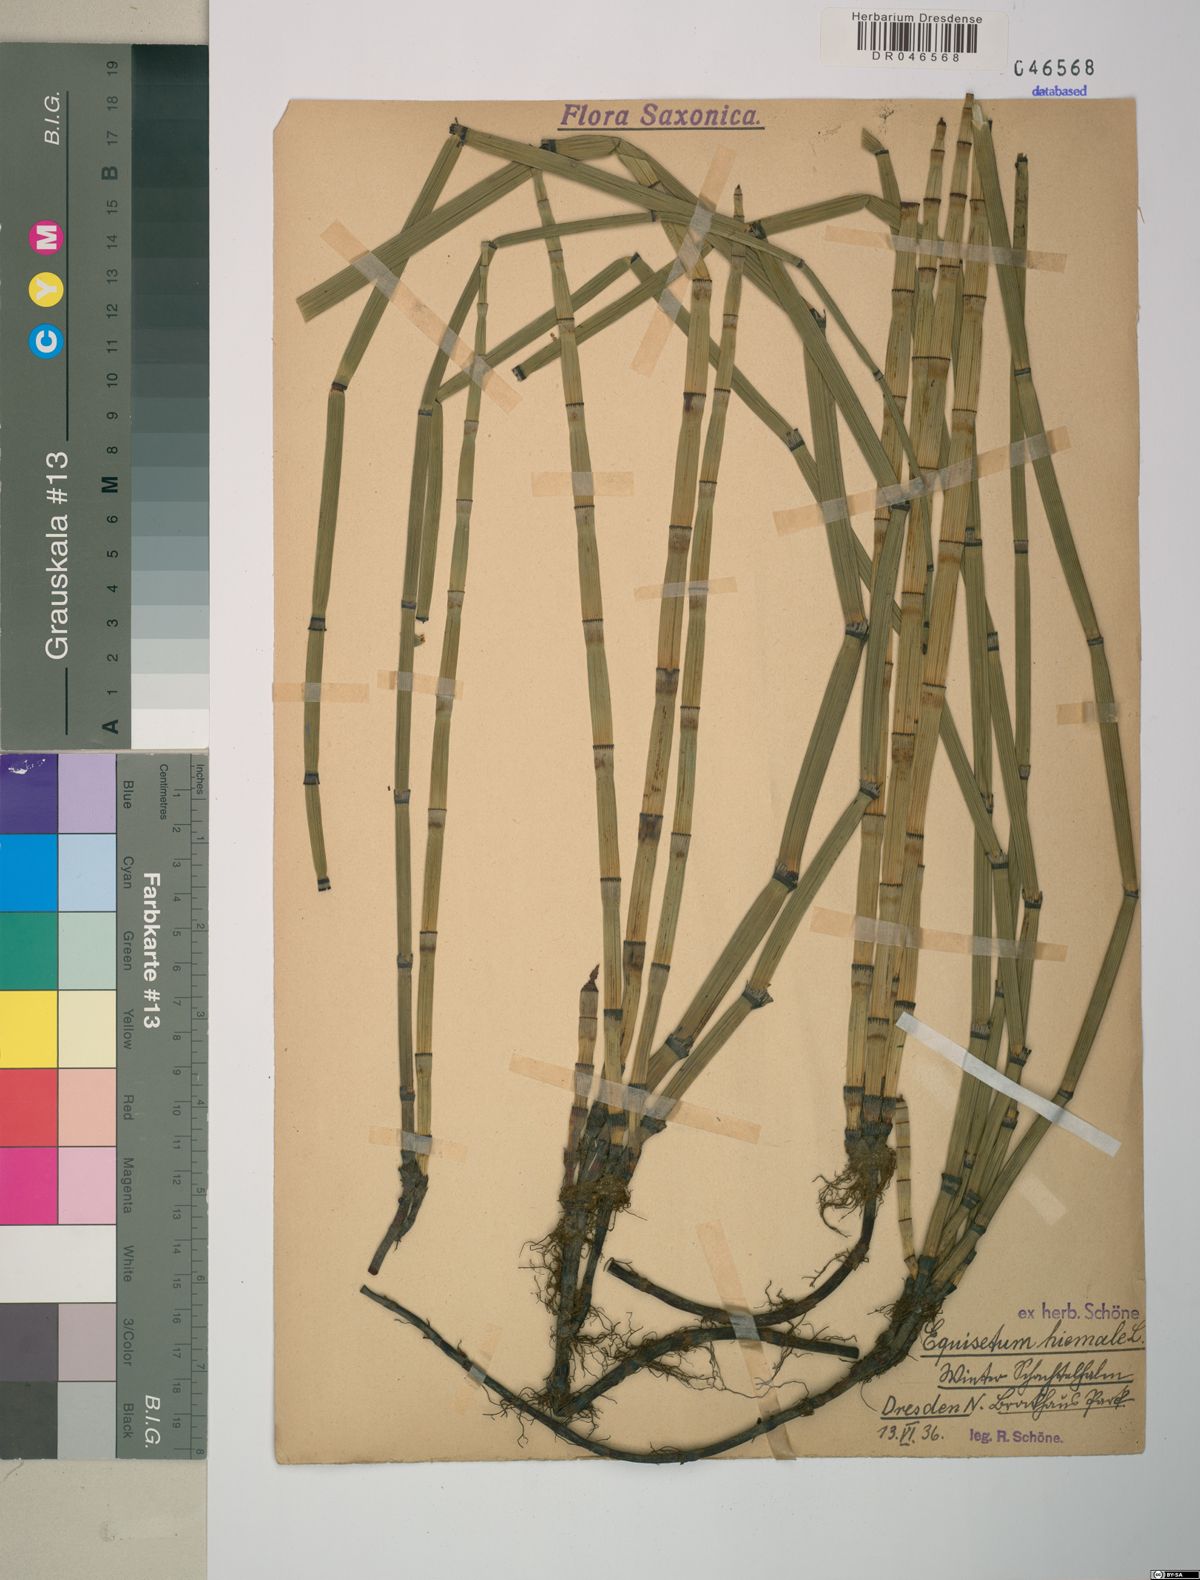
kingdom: Plantae
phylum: Tracheophyta
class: Polypodiopsida
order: Equisetales
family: Equisetaceae
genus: Equisetum
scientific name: Equisetum hyemale
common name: Rough horsetail
